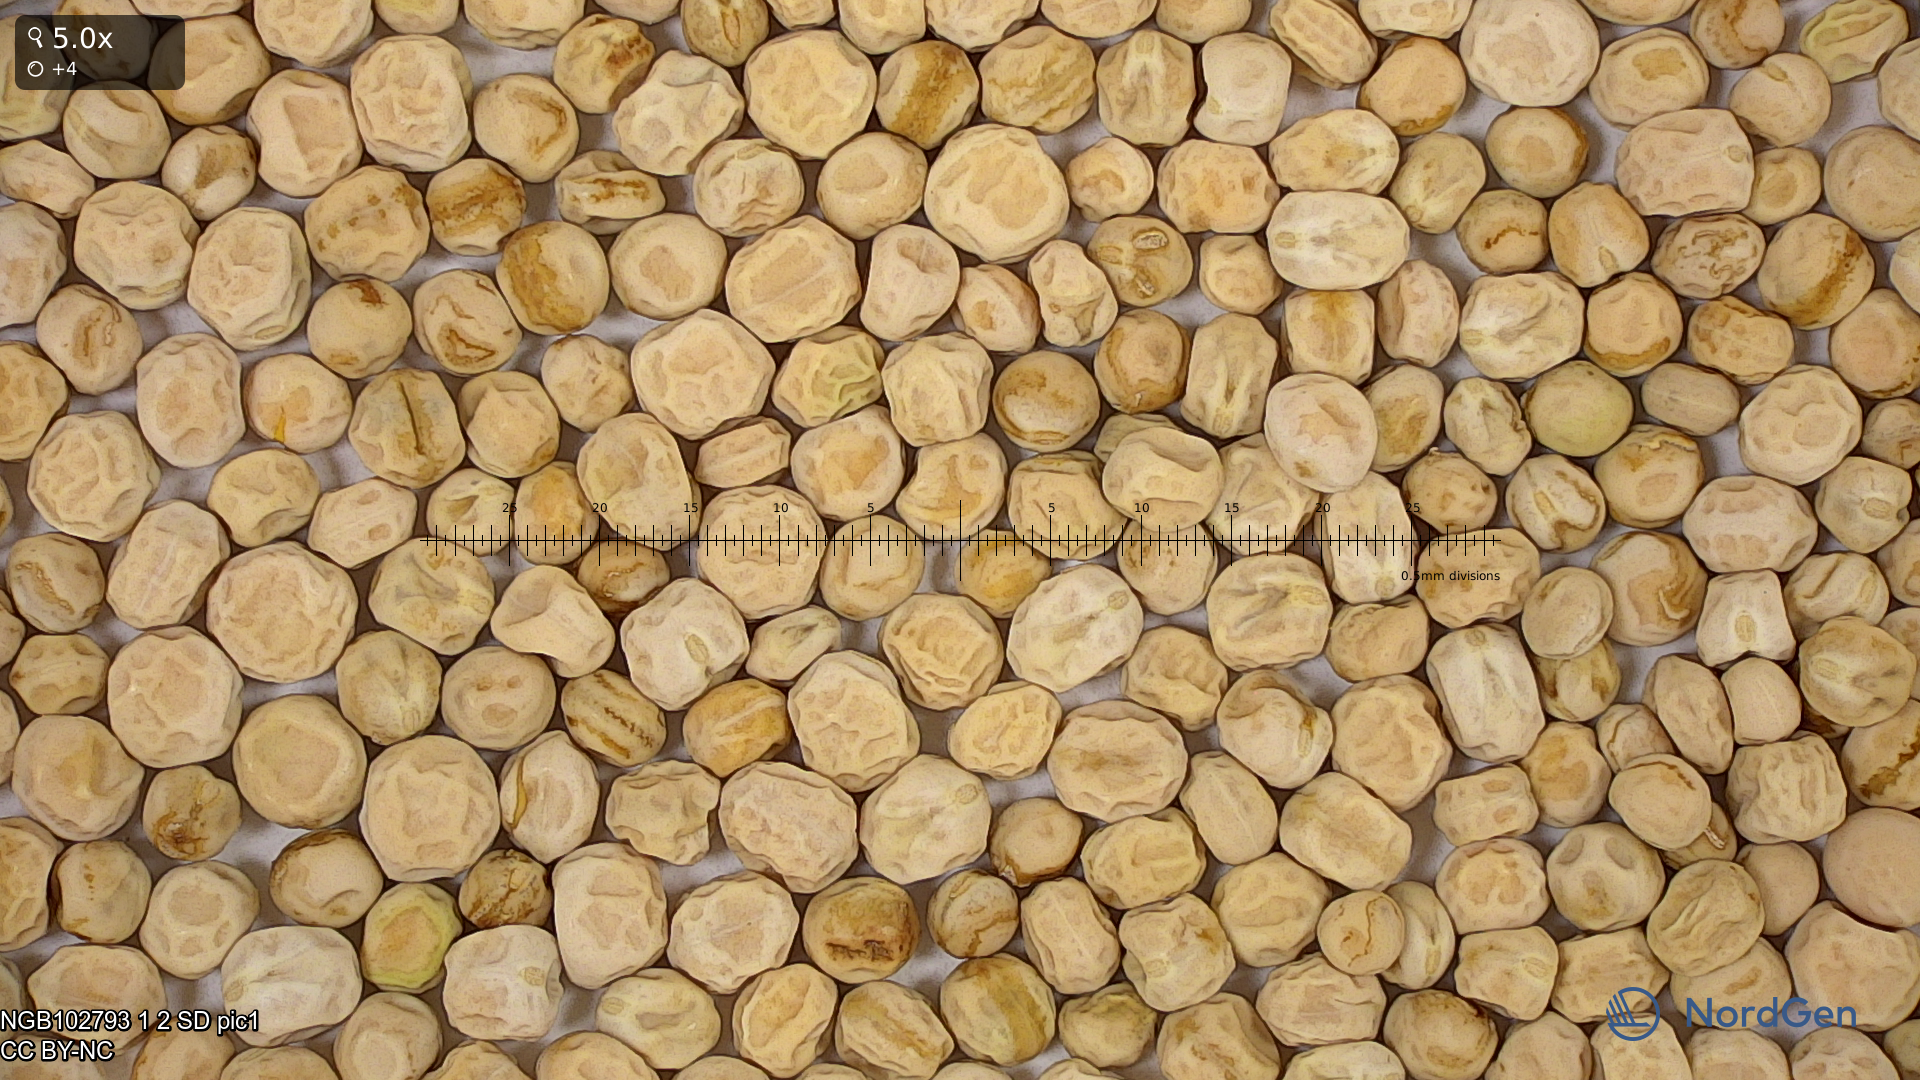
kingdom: Plantae
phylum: Tracheophyta
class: Magnoliopsida
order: Fabales
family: Fabaceae
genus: Lathyrus
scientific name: Lathyrus oleraceus
